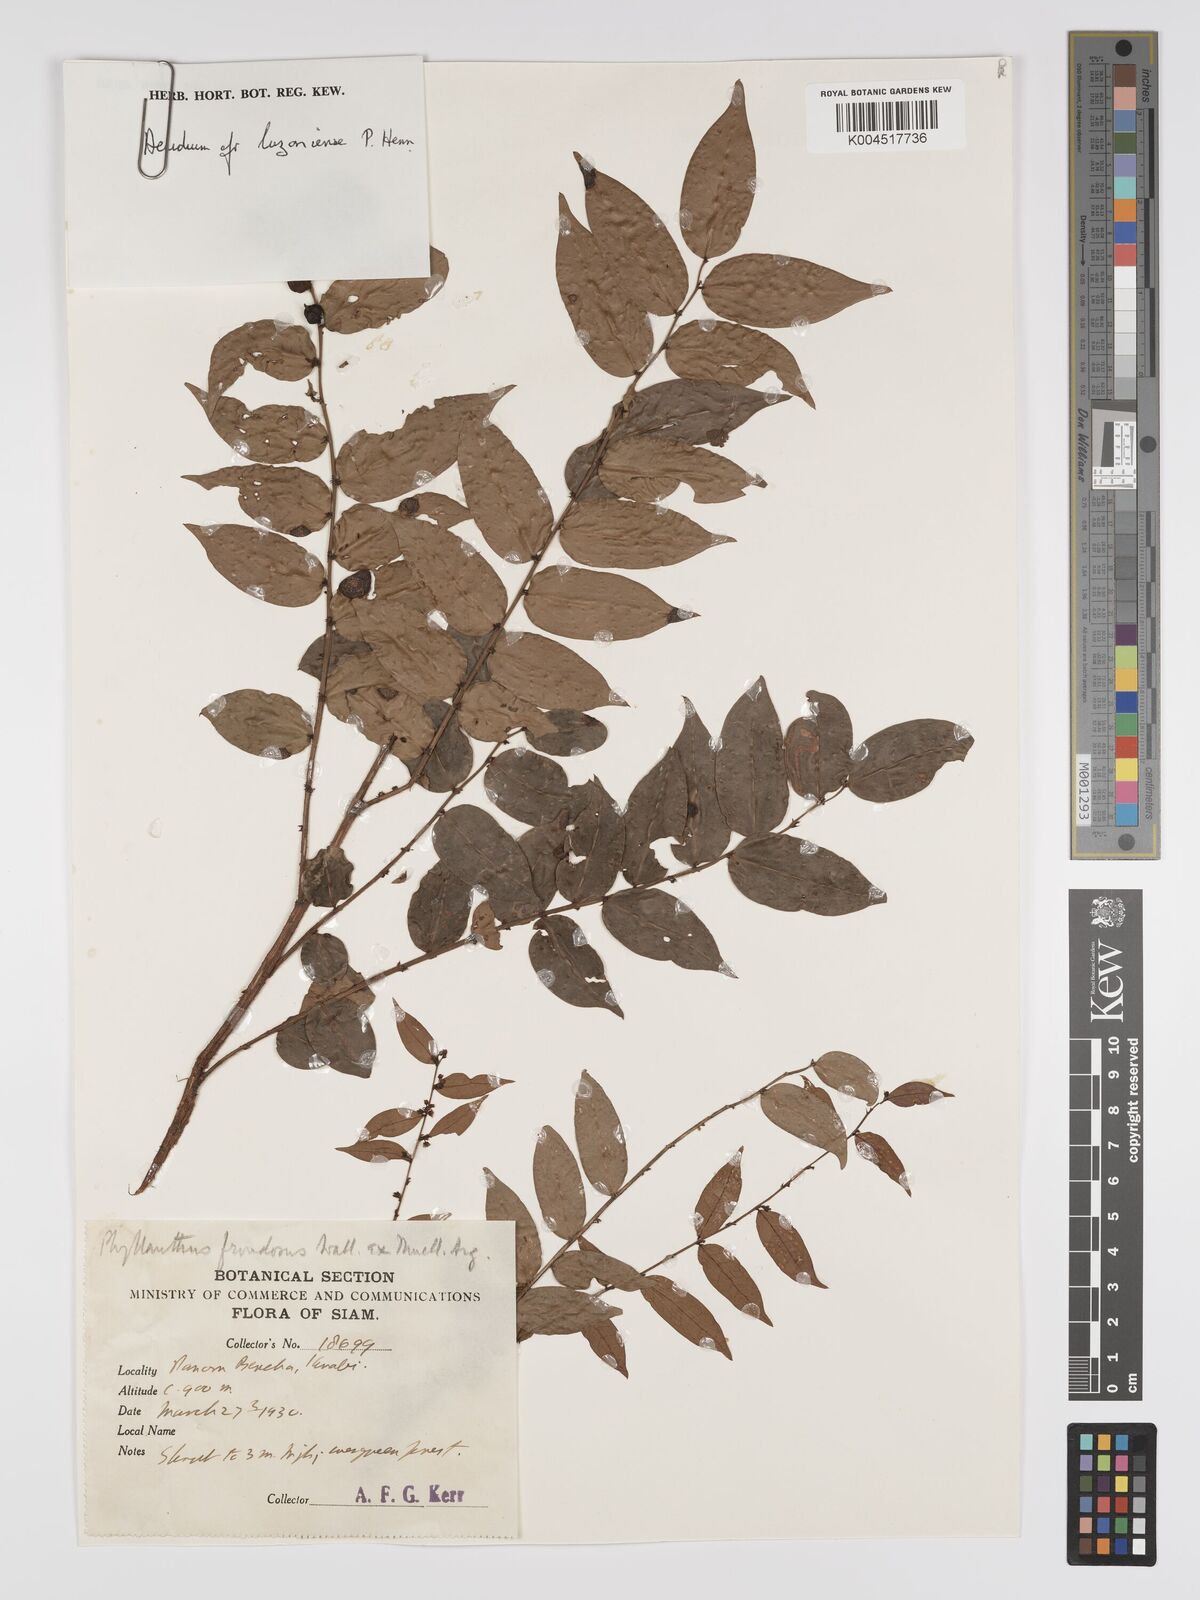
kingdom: Plantae
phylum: Tracheophyta
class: Magnoliopsida
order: Malpighiales
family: Phyllanthaceae
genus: Phyllanthus
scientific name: Phyllanthus
